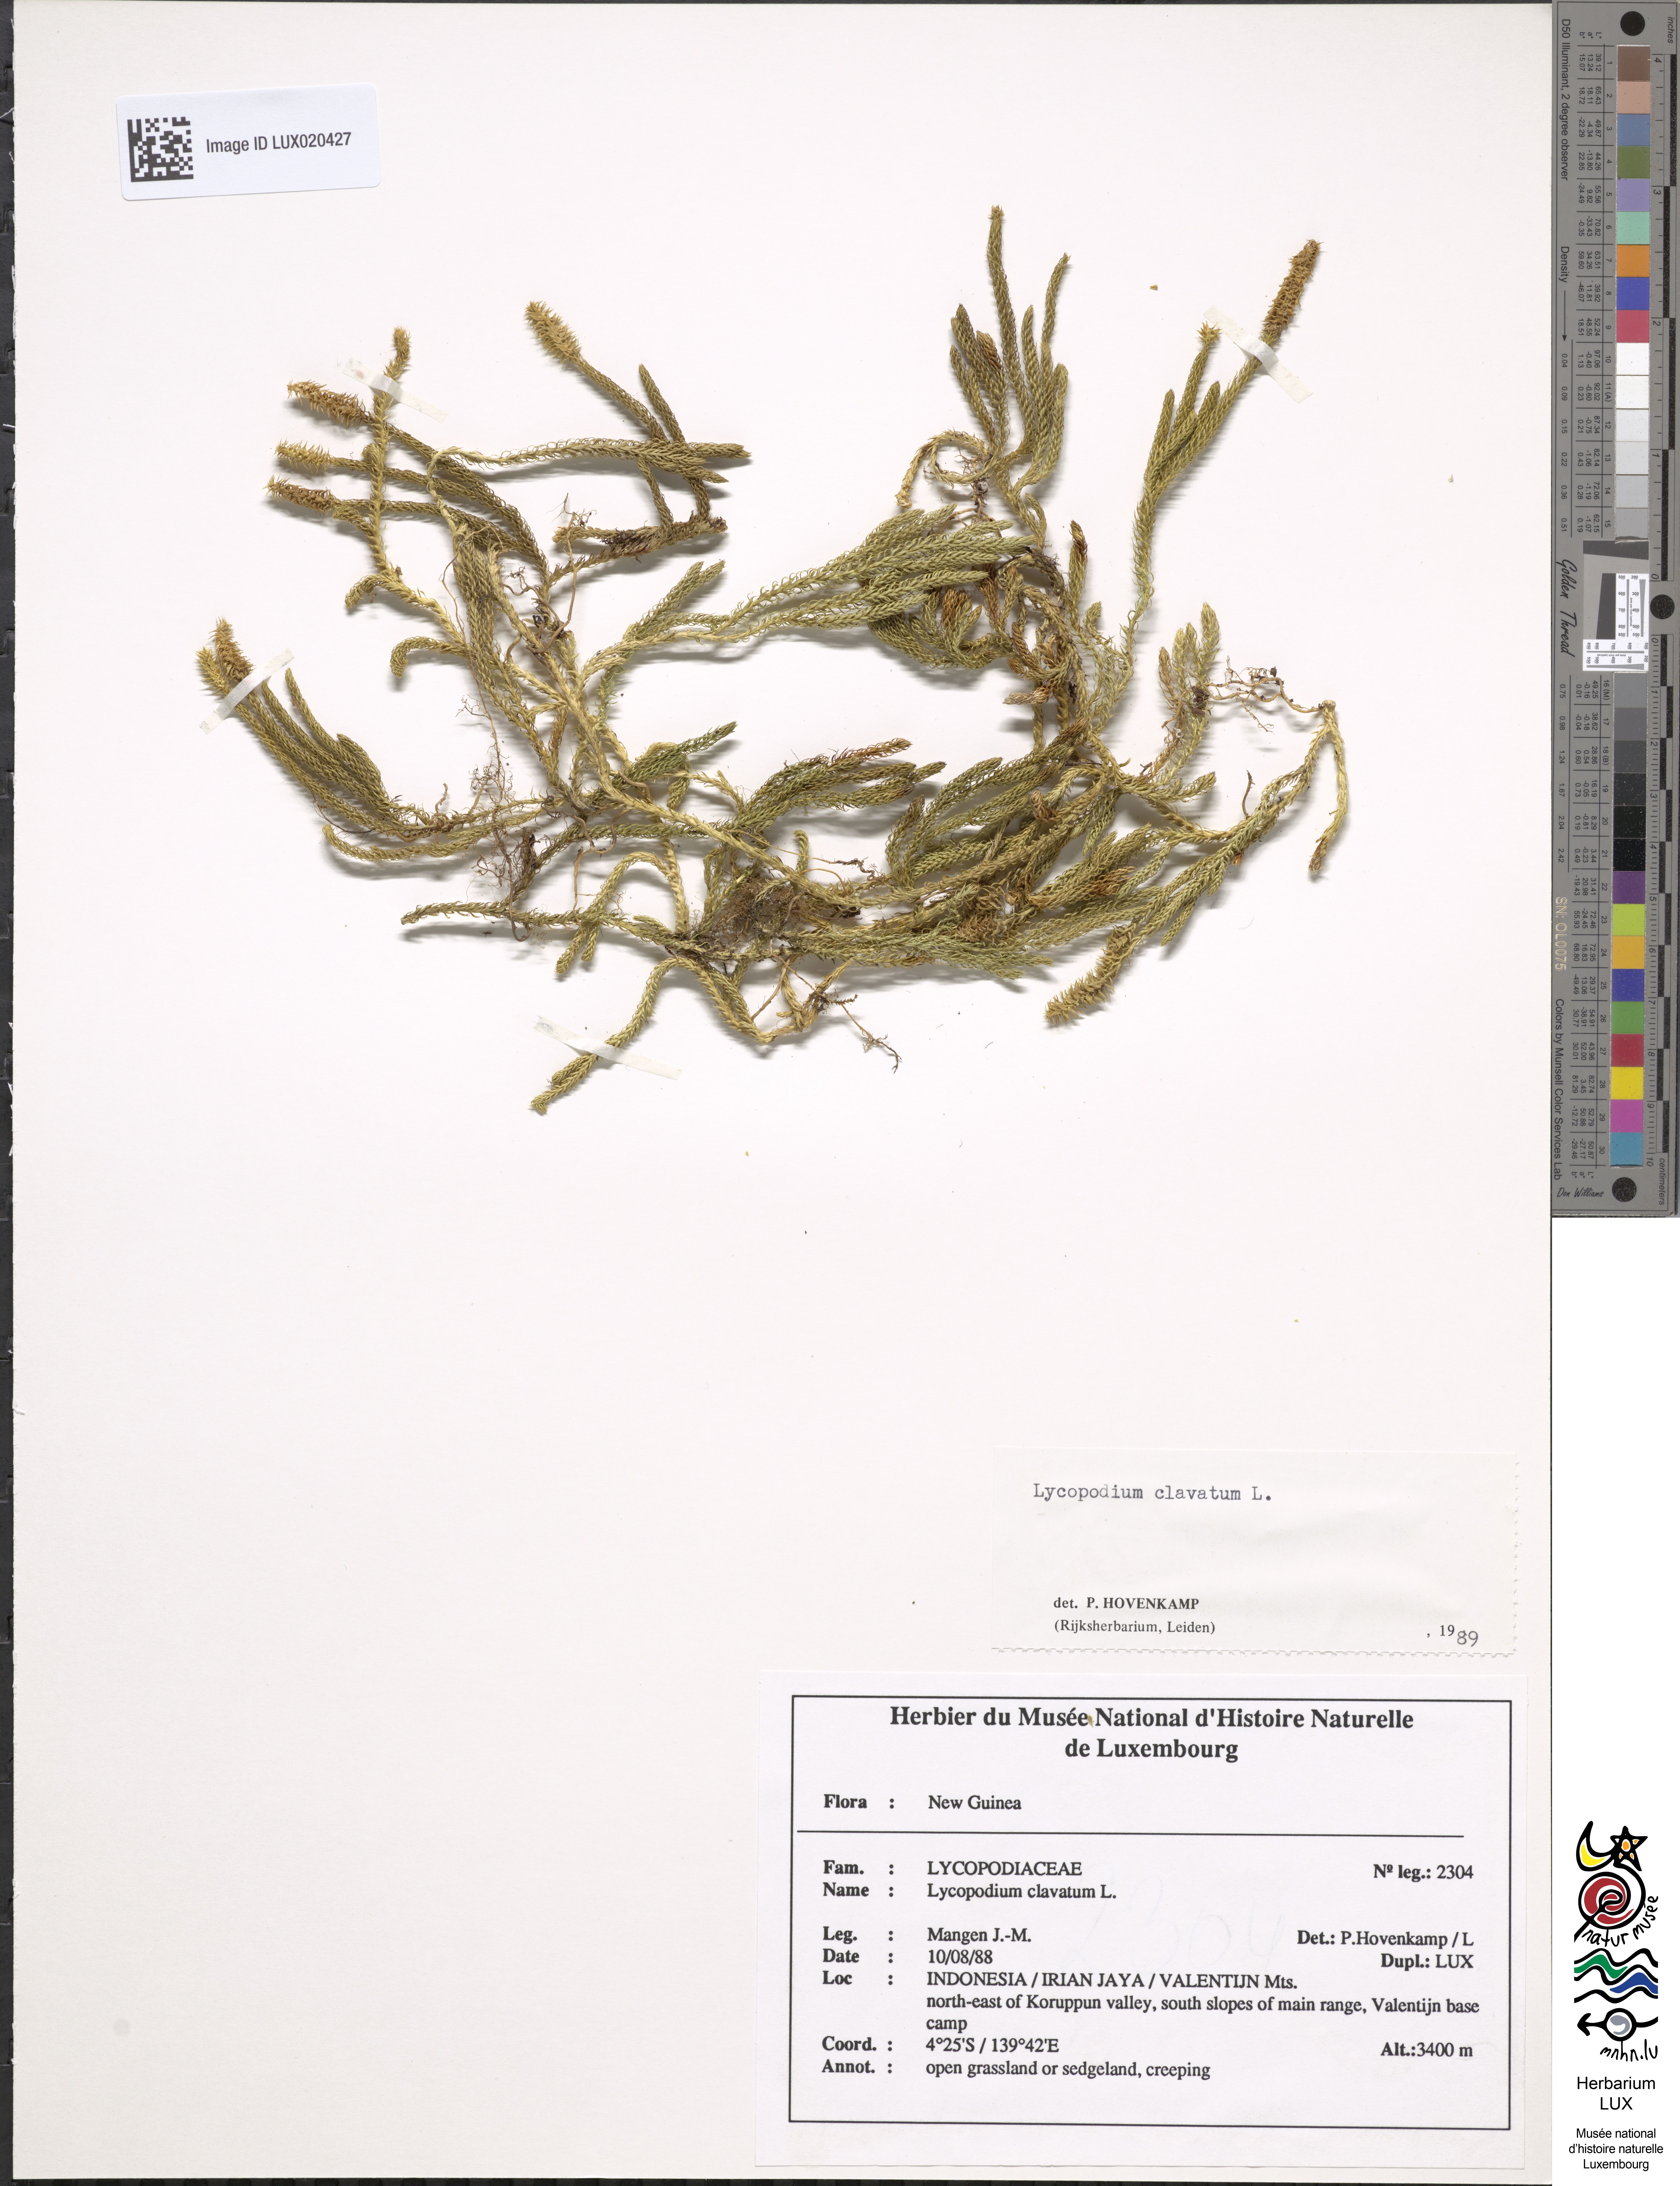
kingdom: Plantae
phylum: Tracheophyta
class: Lycopodiopsida
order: Lycopodiales
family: Lycopodiaceae
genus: Lycopodium
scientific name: Lycopodium clavatum
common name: Stag's-horn clubmoss
